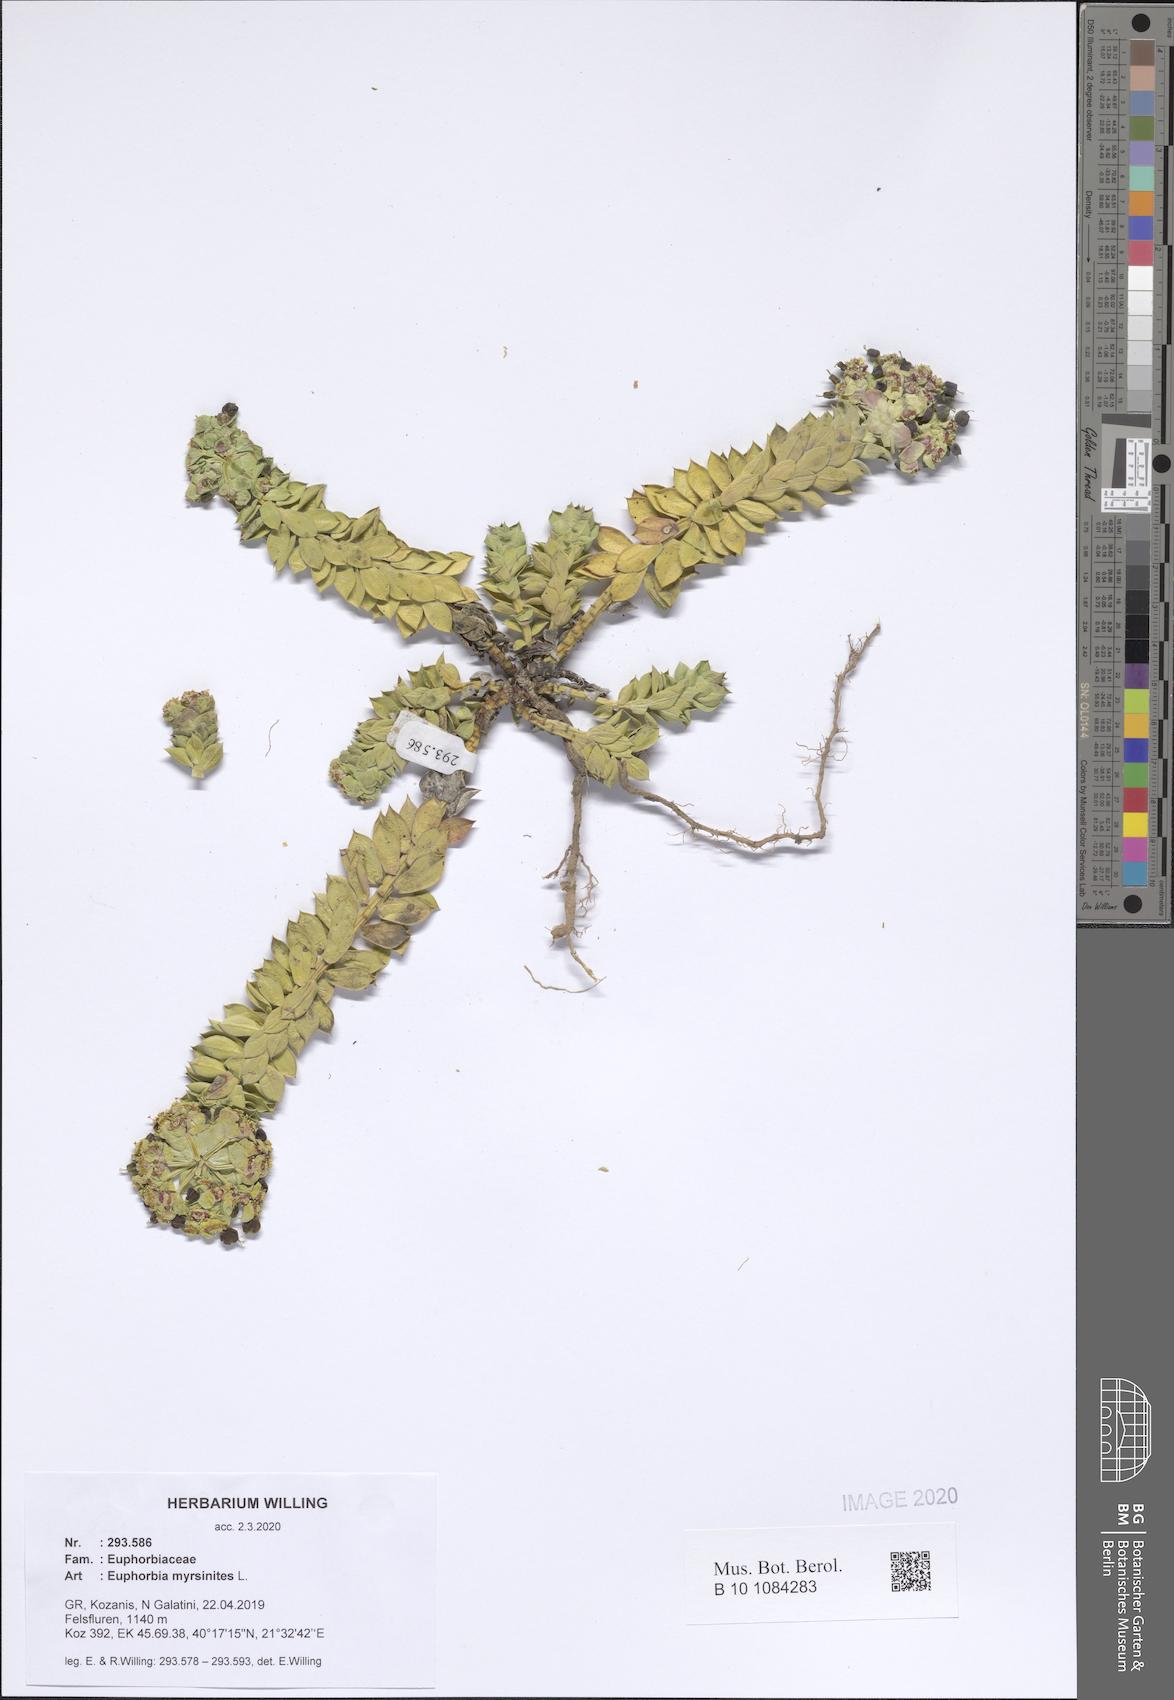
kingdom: Plantae
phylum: Tracheophyta
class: Magnoliopsida
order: Malpighiales
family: Euphorbiaceae
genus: Euphorbia
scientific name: Euphorbia myrsinites
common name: Myrtle spurge
